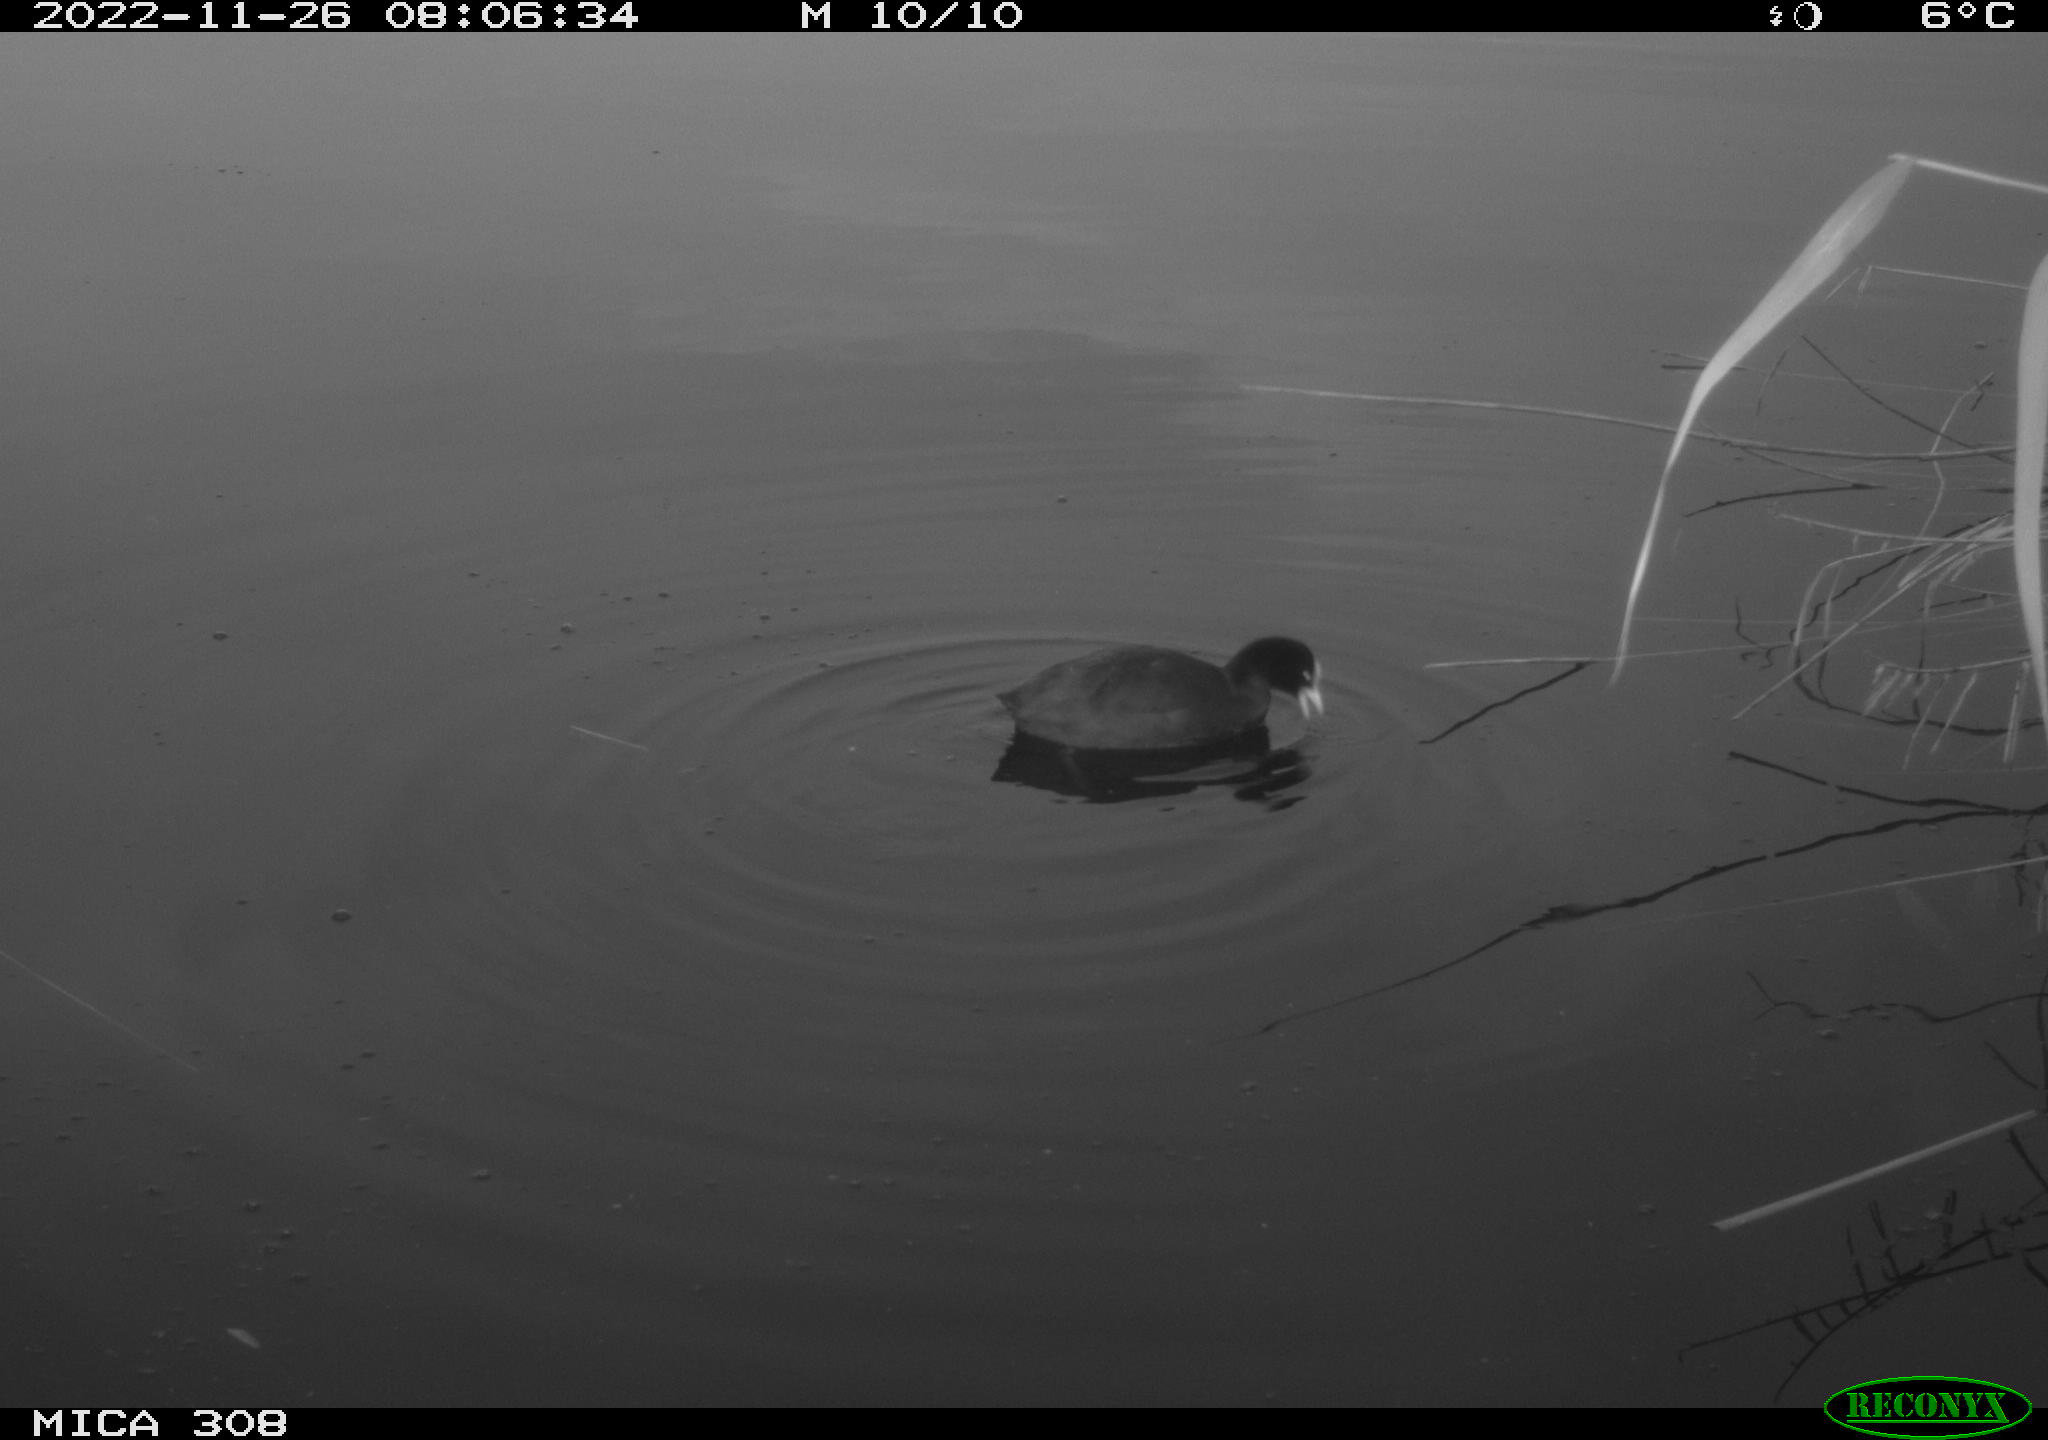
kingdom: Animalia
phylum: Chordata
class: Aves
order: Gruiformes
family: Rallidae
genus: Fulica
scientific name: Fulica atra
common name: Eurasian coot
